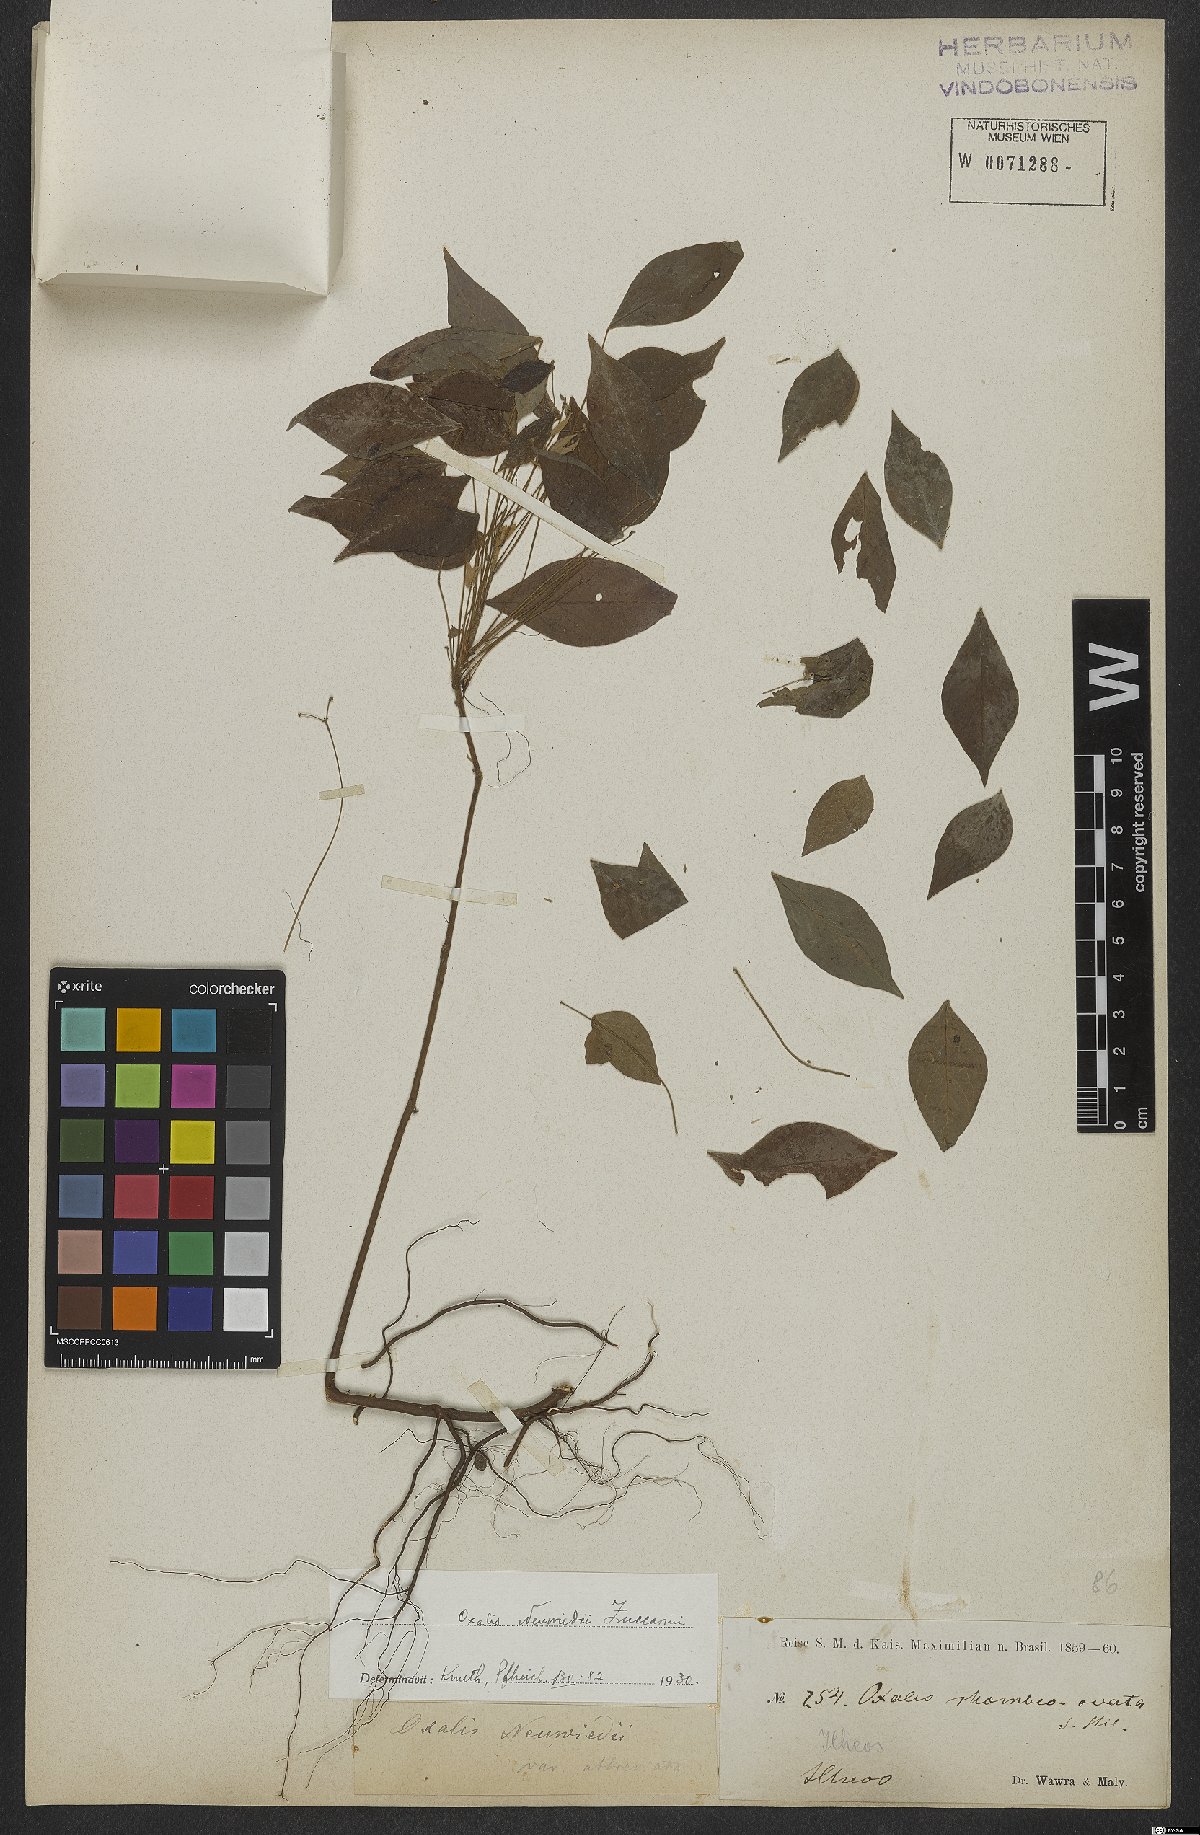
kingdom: Plantae
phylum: Tracheophyta
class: Magnoliopsida
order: Oxalidales
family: Oxalidaceae
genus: Oxalis
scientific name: Oxalis neuwiedii
